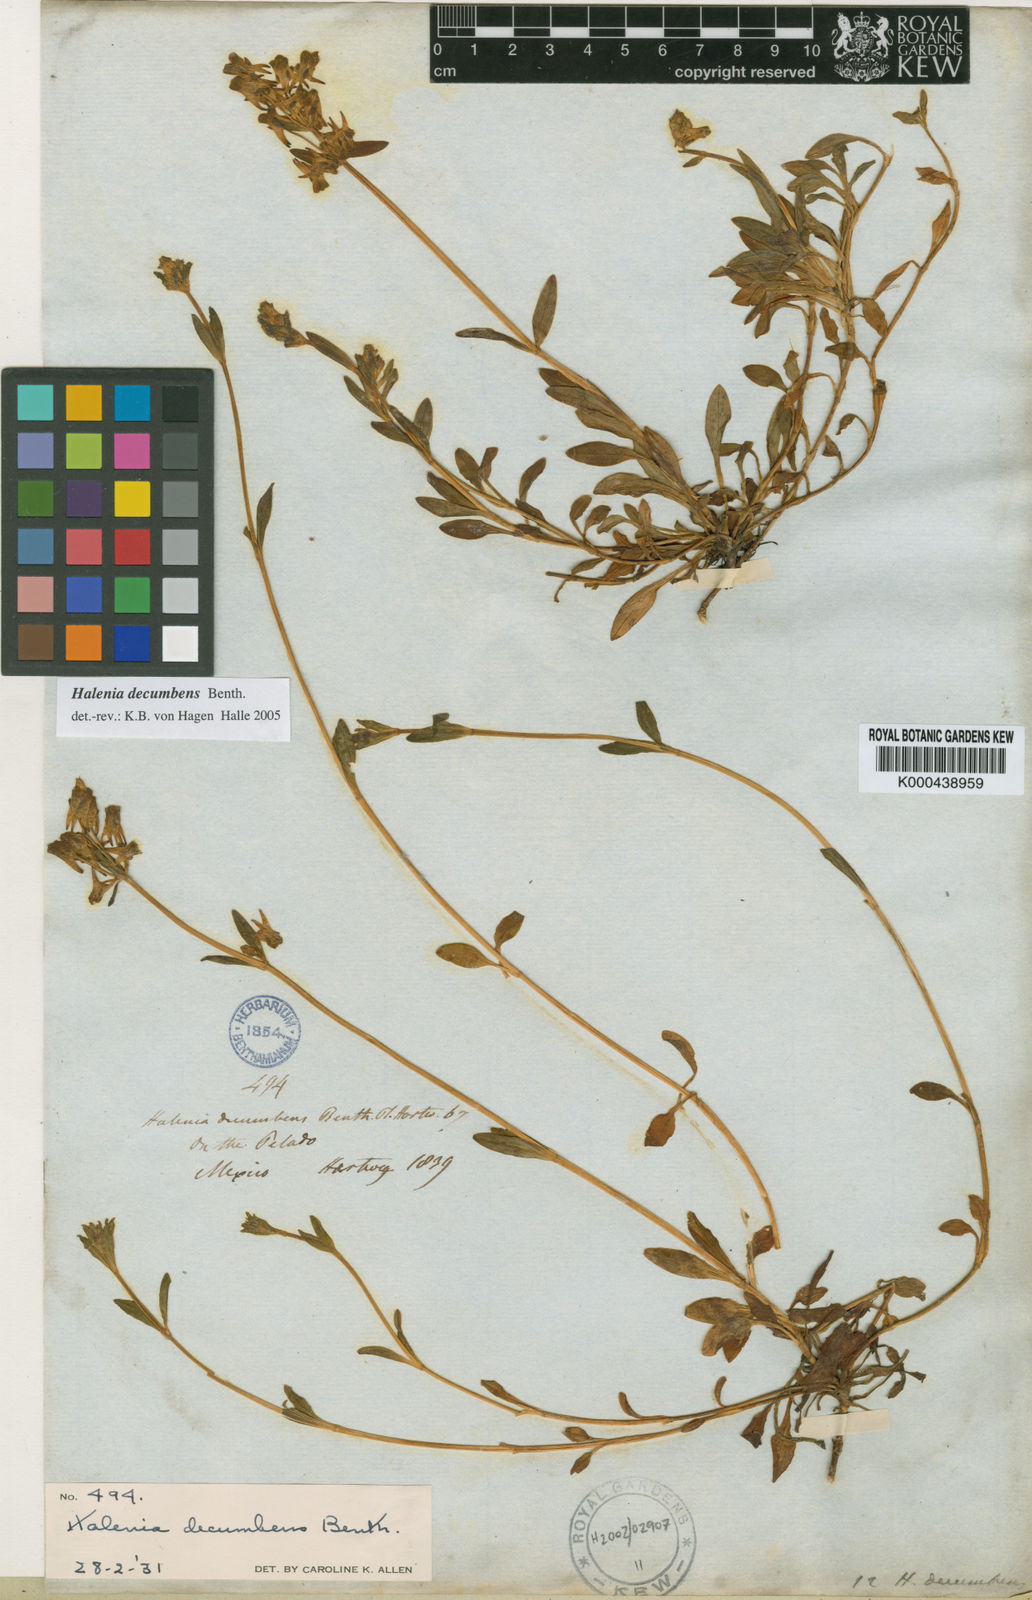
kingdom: Plantae
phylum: Tracheophyta
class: Magnoliopsida
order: Gentianales
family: Gentianaceae
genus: Halenia
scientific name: Halenia decumbens
